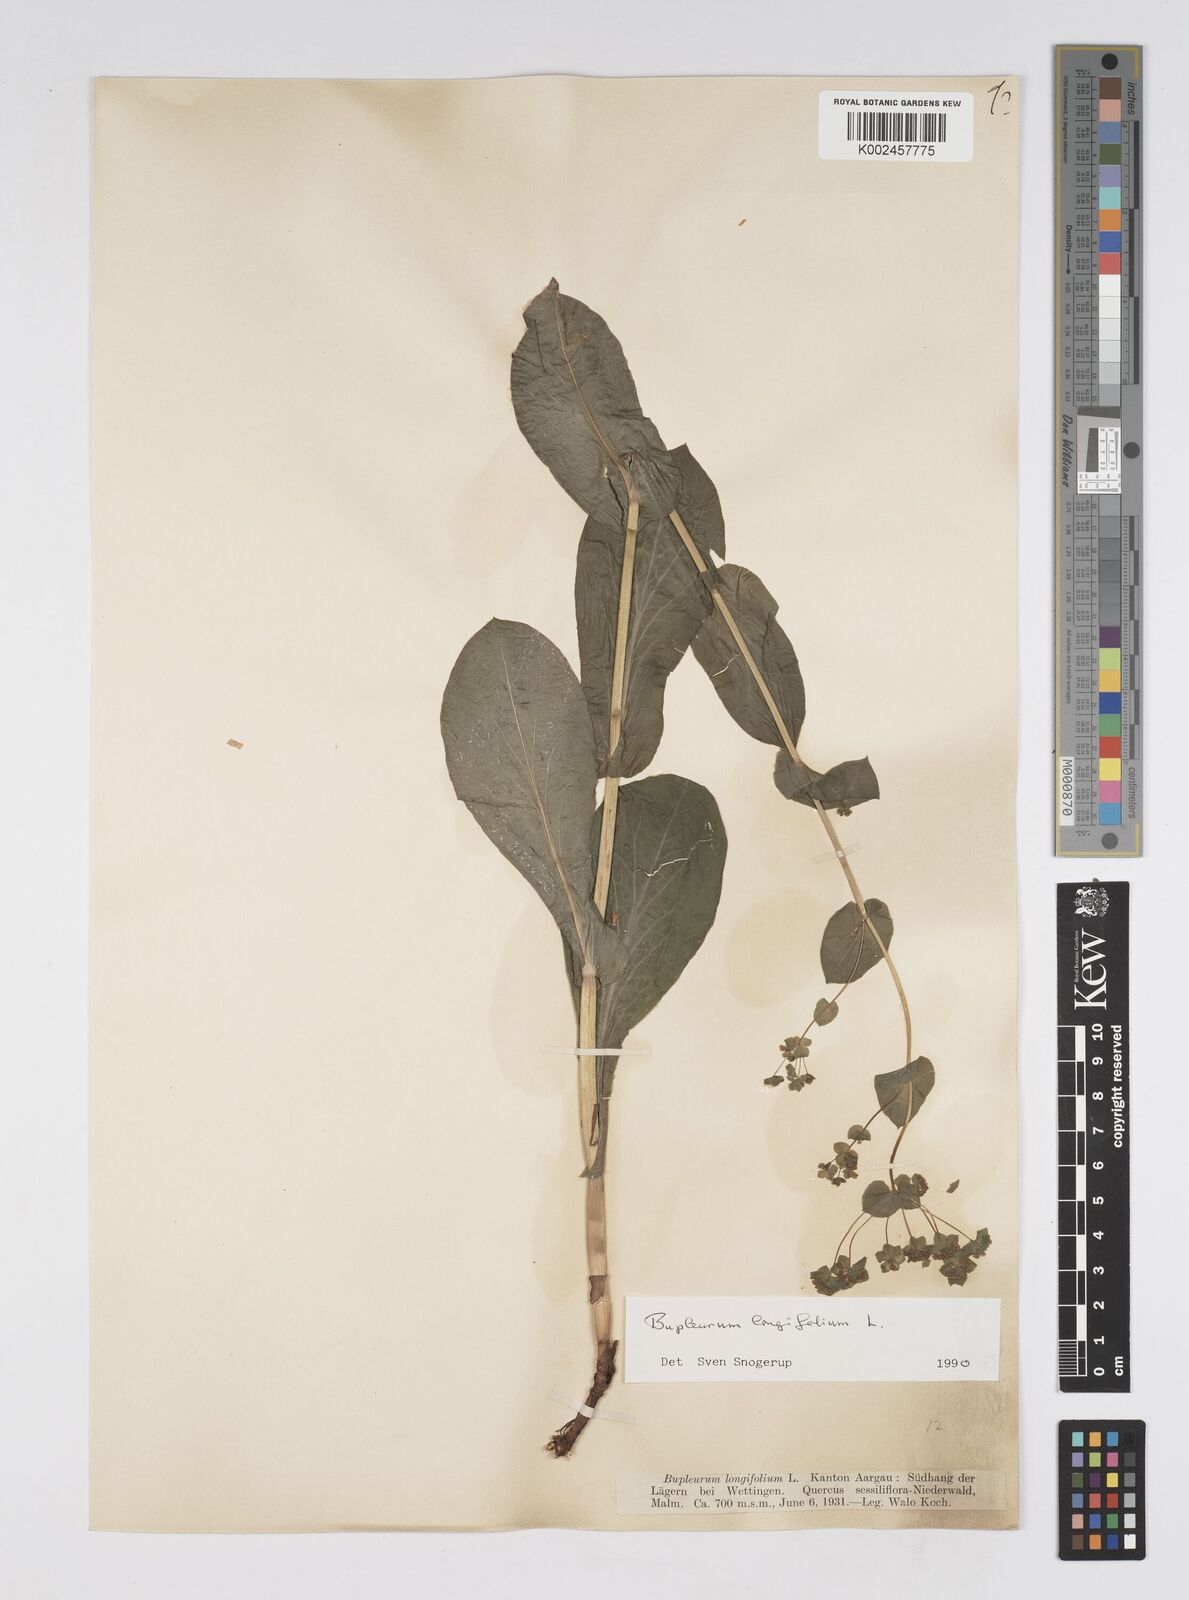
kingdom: Plantae
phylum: Tracheophyta
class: Magnoliopsida
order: Apiales
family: Apiaceae
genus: Bupleurum
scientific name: Bupleurum longifolium
